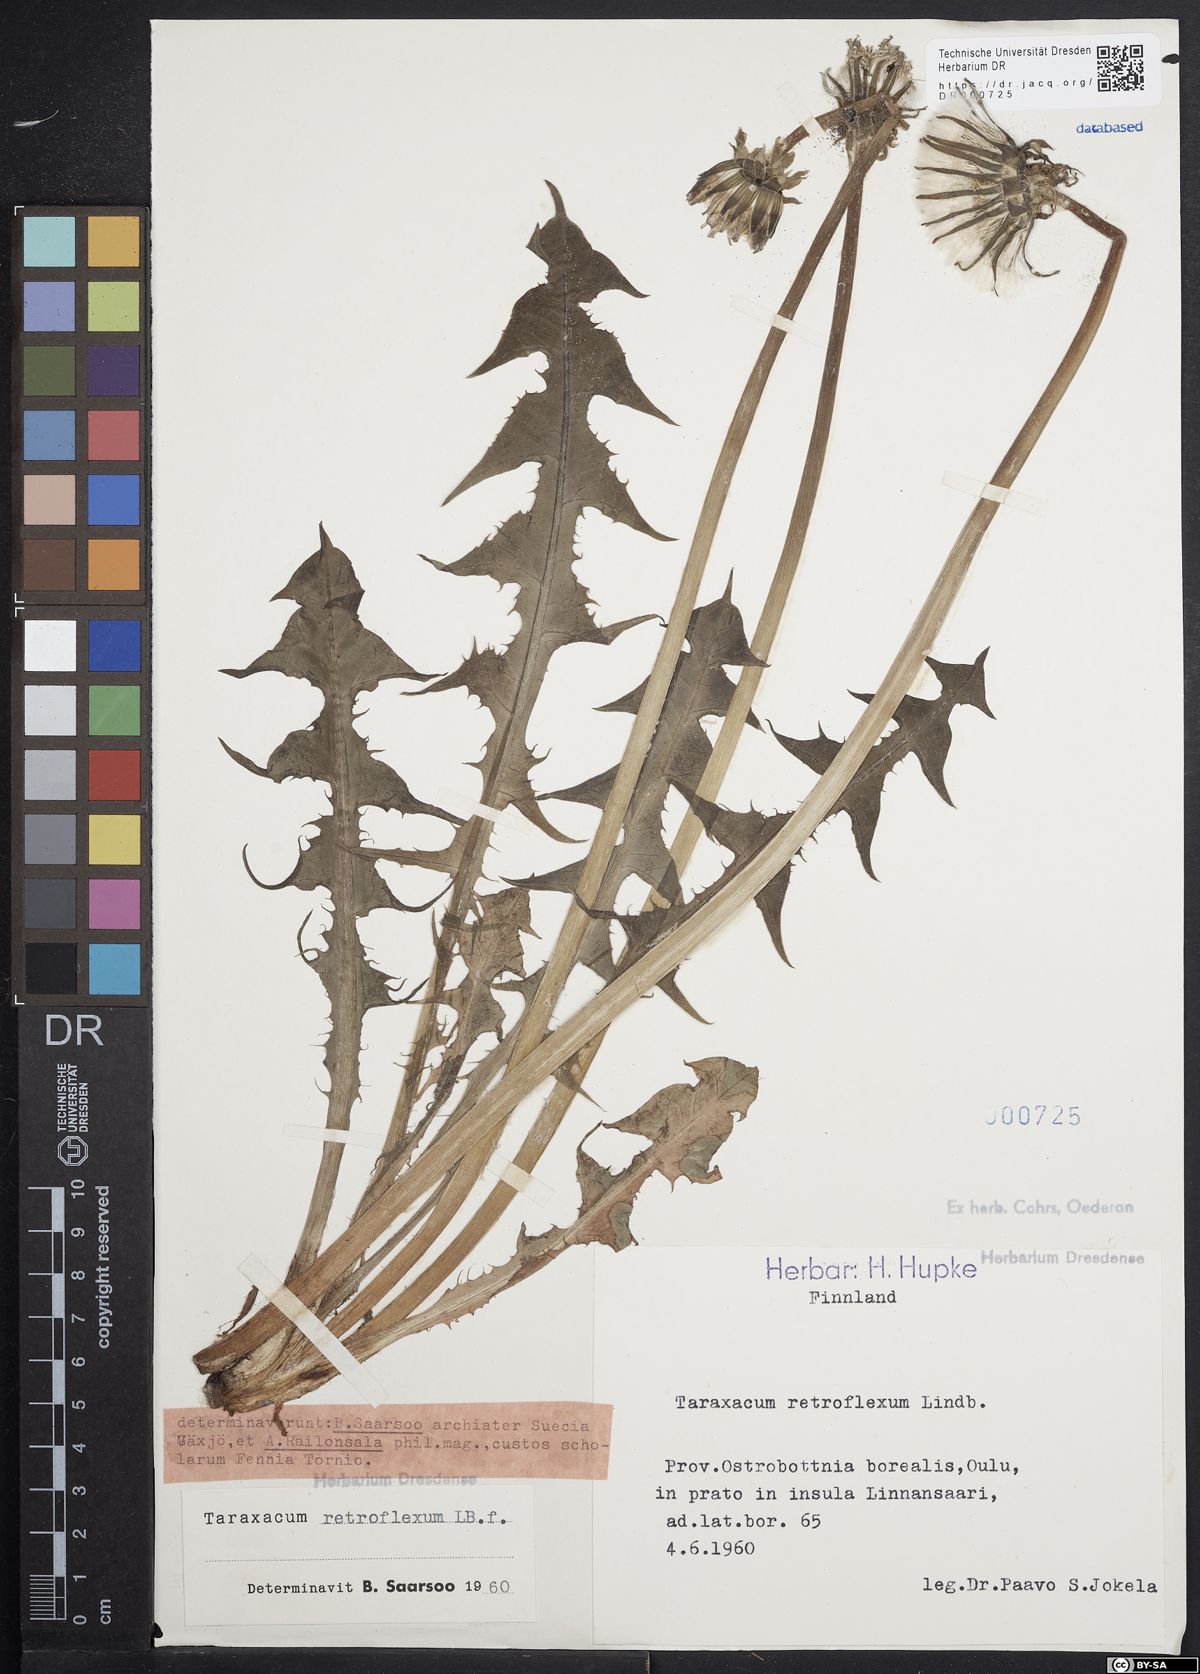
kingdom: Plantae
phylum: Tracheophyta
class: Magnoliopsida
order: Asterales
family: Asteraceae
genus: Taraxacum
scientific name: Taraxacum retroflexum
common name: Reflexed-lobed dandelion
